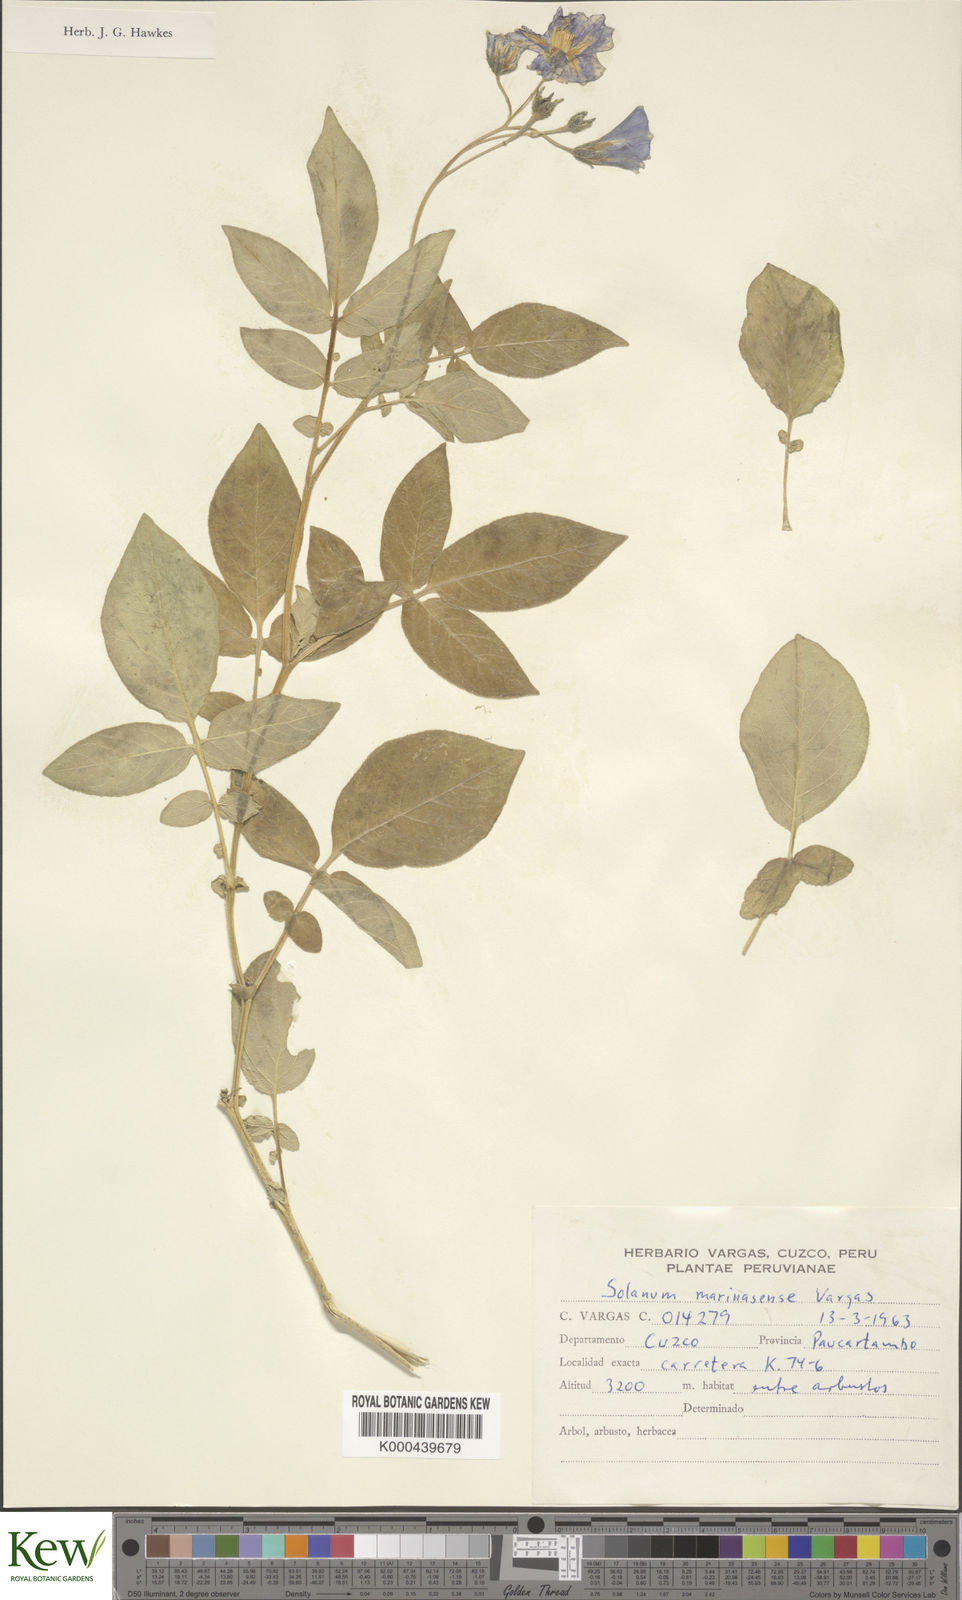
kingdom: Plantae
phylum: Tracheophyta
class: Magnoliopsida
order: Solanales
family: Solanaceae
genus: Solanum
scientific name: Solanum candolleanum
